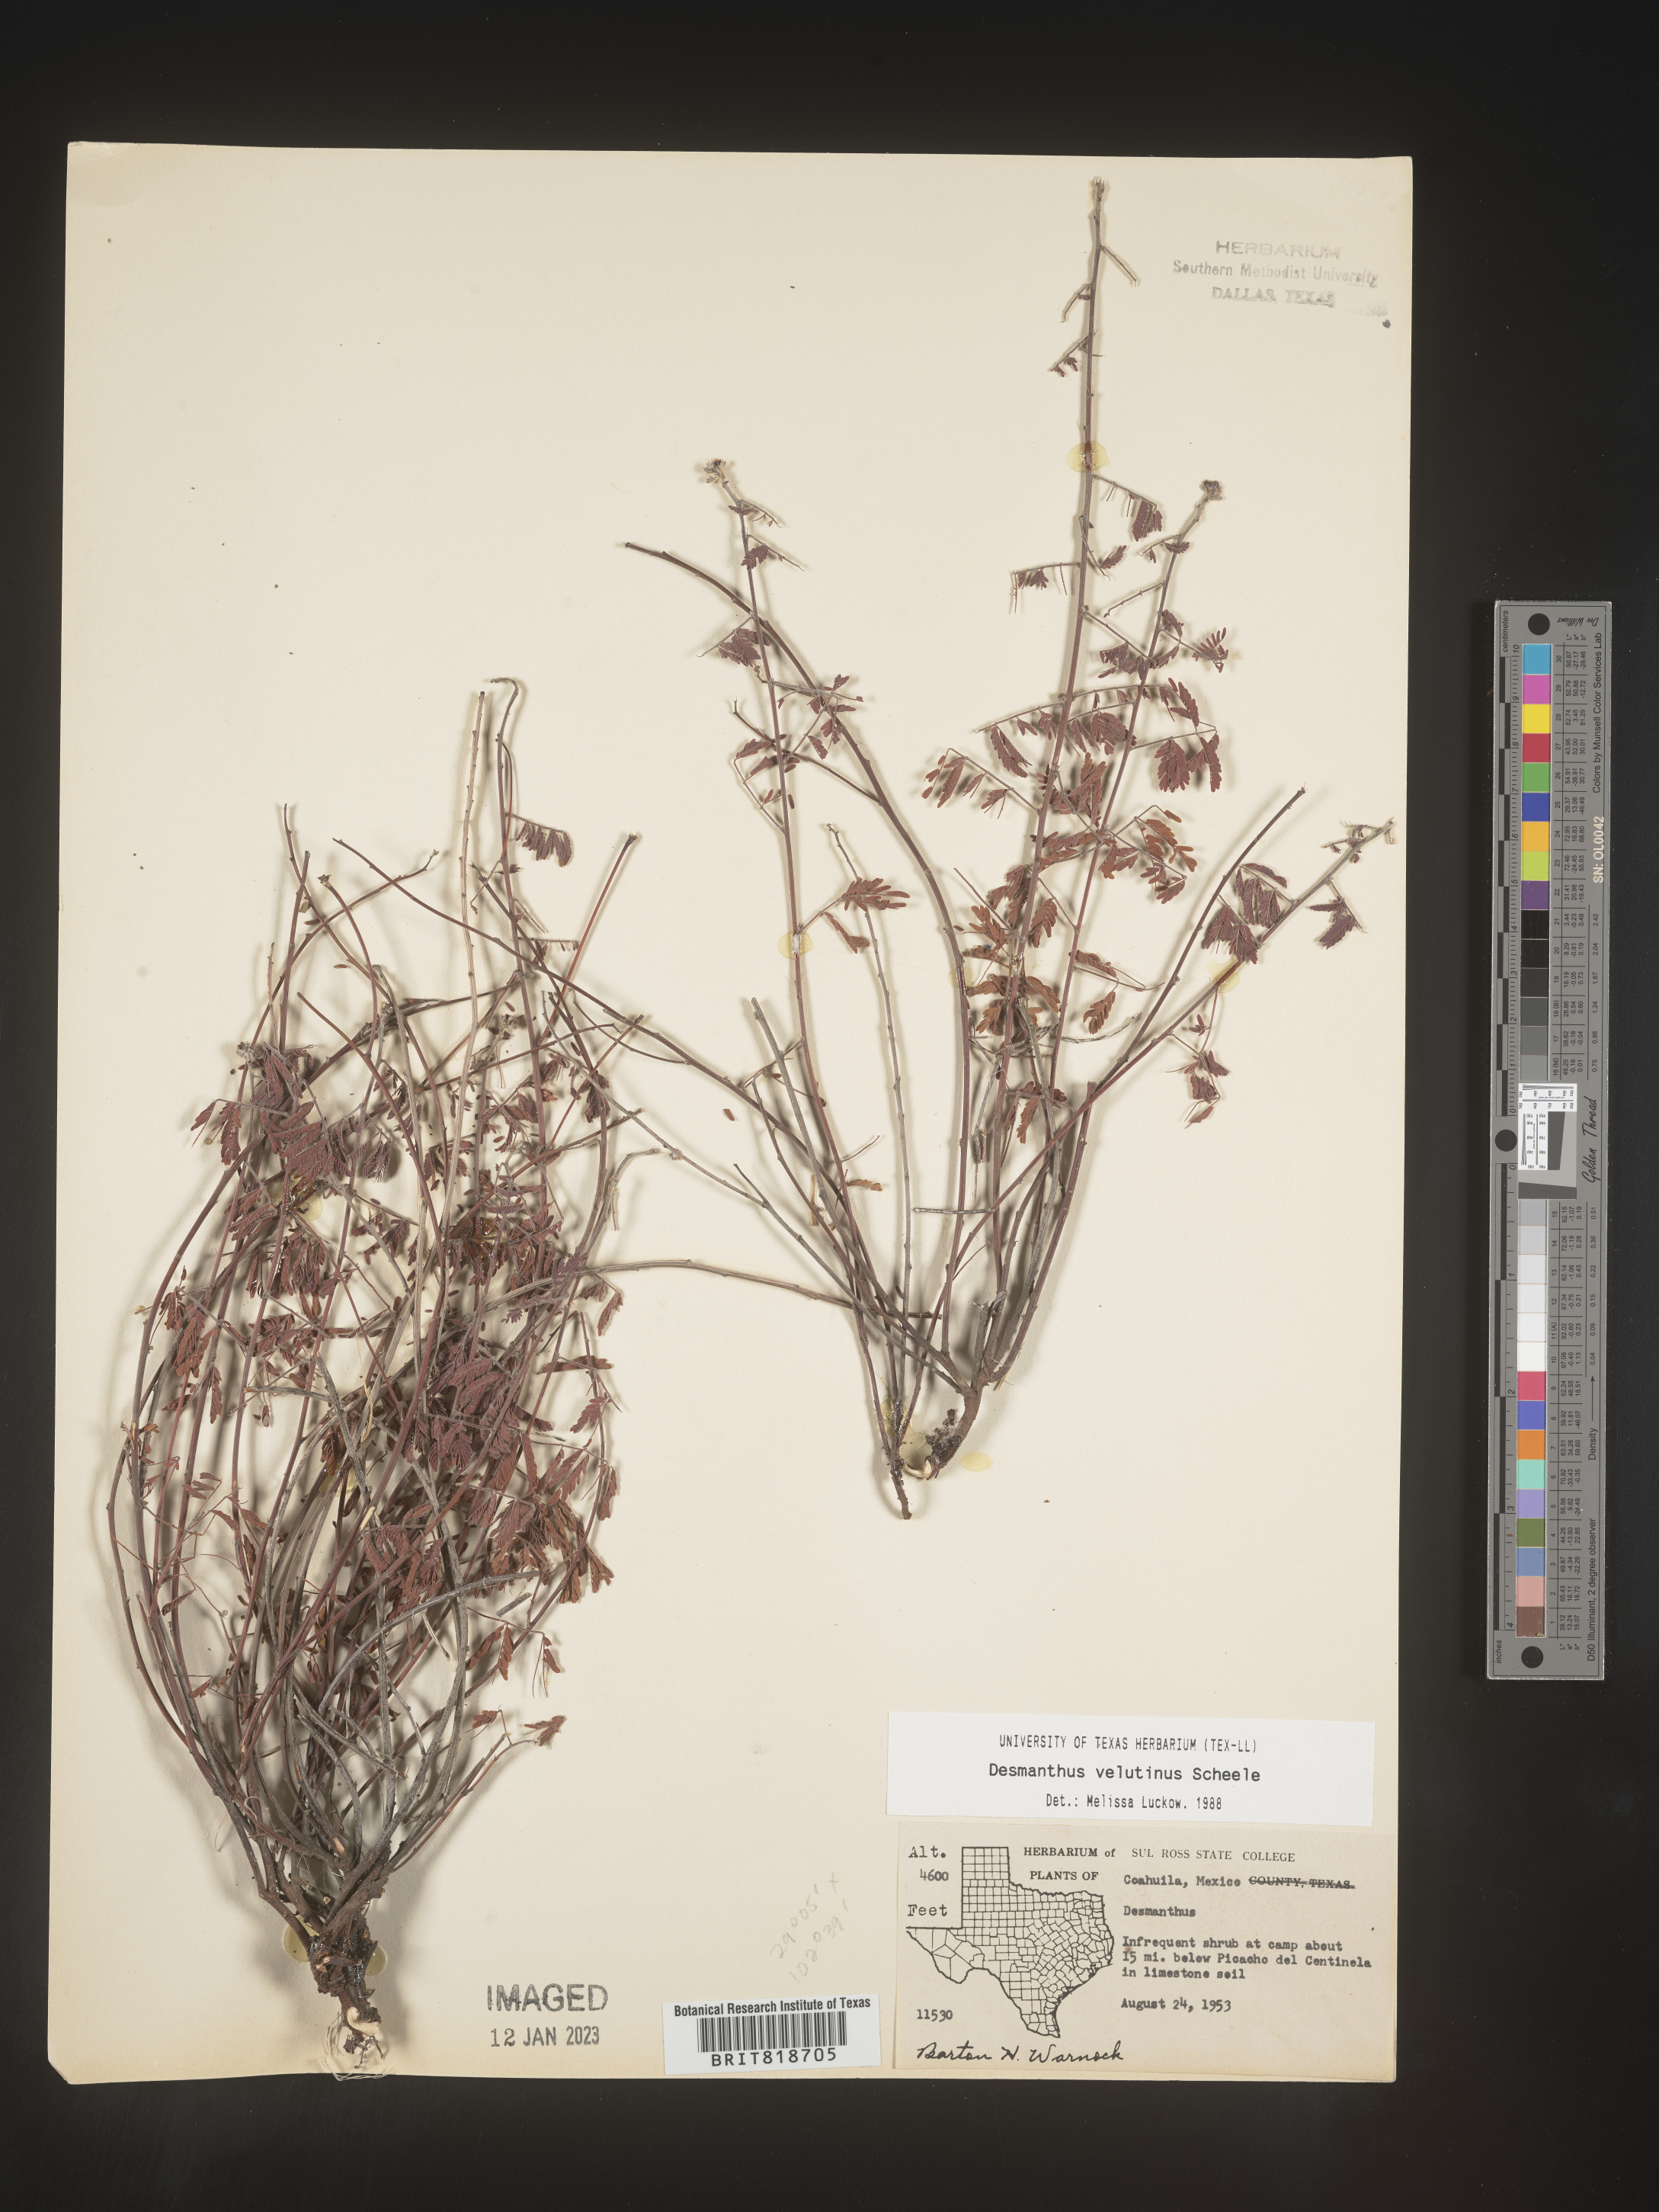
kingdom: Plantae
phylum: Tracheophyta
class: Magnoliopsida
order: Fabales
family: Fabaceae
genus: Desmanthus
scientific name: Desmanthus
